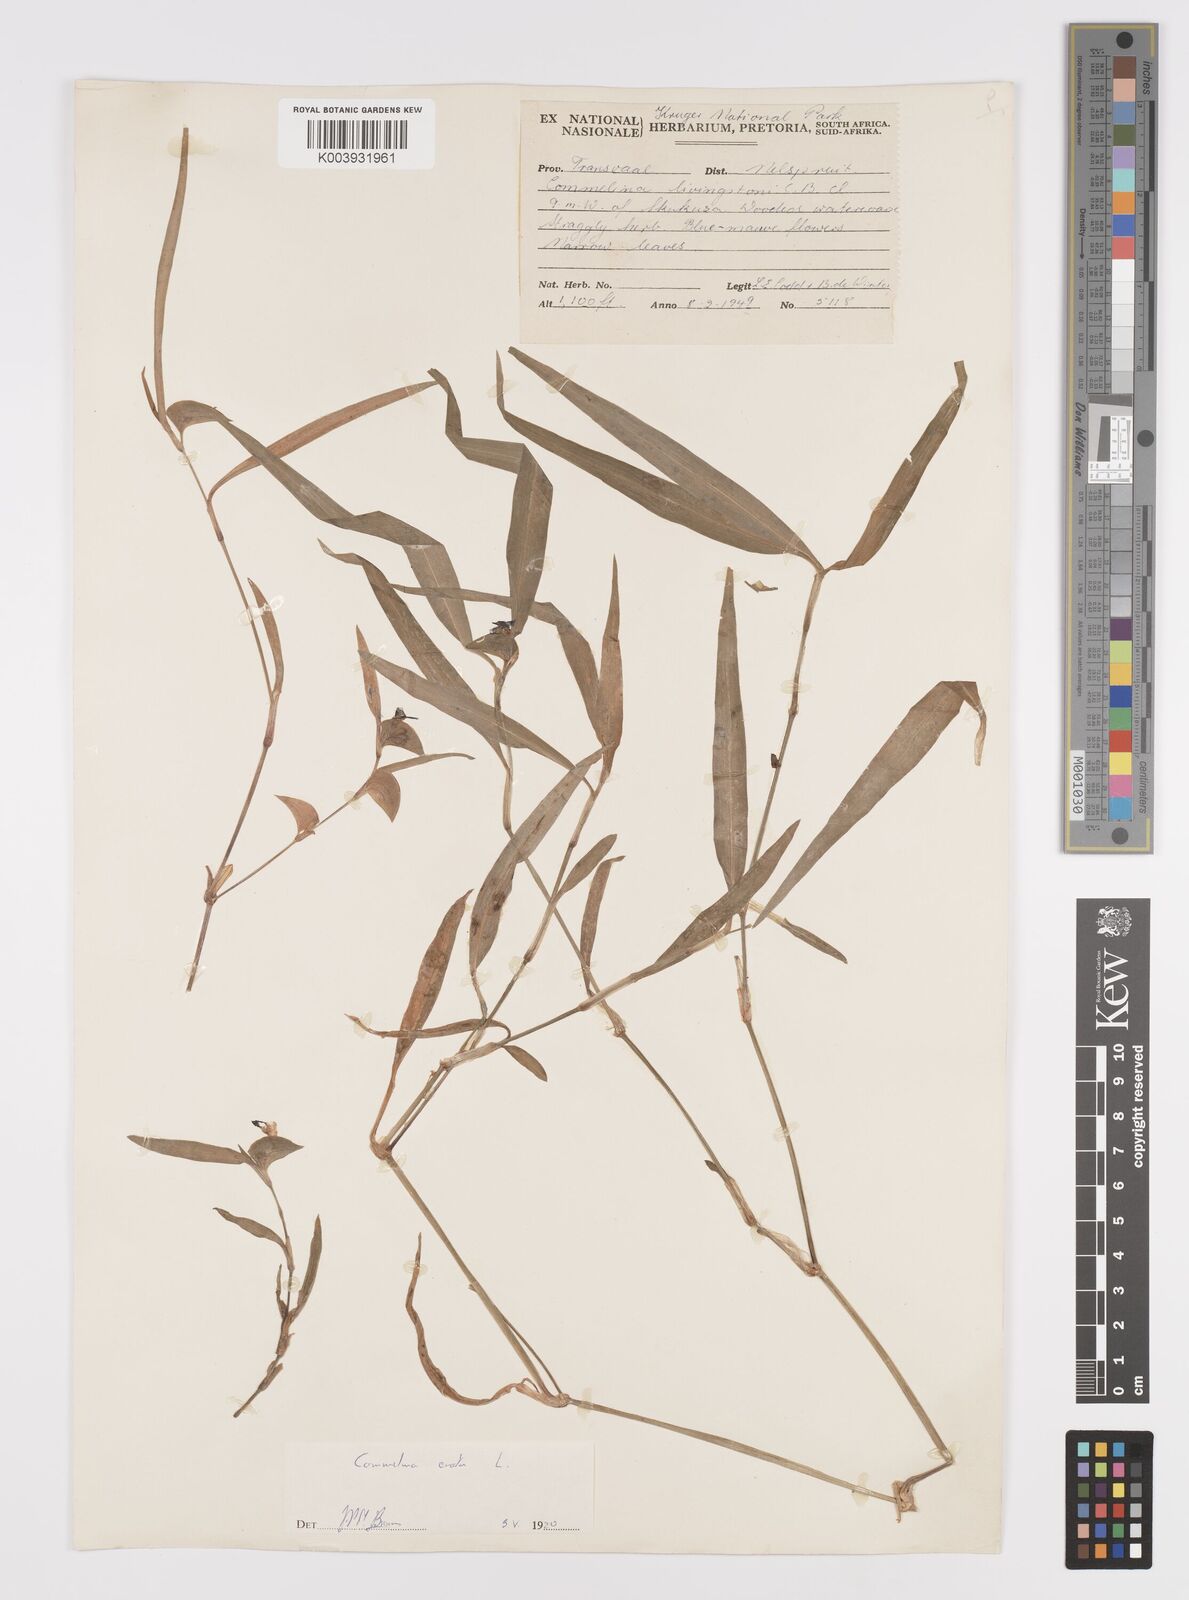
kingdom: Plantae
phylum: Tracheophyta
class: Liliopsida
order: Commelinales
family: Commelinaceae
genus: Commelina
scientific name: Commelina erecta
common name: Blousel blommetjie
